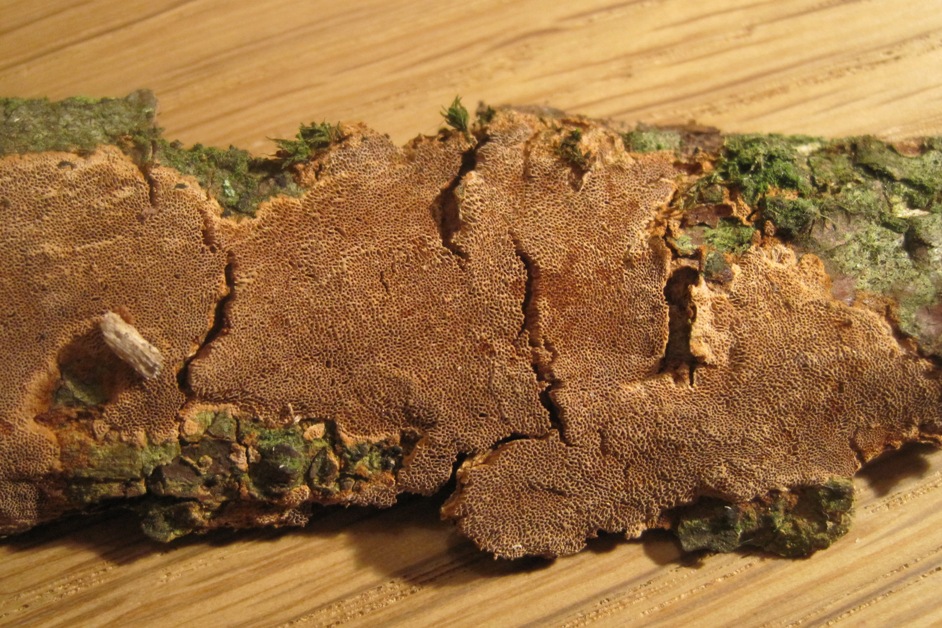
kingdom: Fungi
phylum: Basidiomycota
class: Agaricomycetes
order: Hymenochaetales
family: Hymenochaetaceae
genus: Fuscoporia
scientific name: Fuscoporia ferruginosa
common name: rustbrun ildporesvamp
